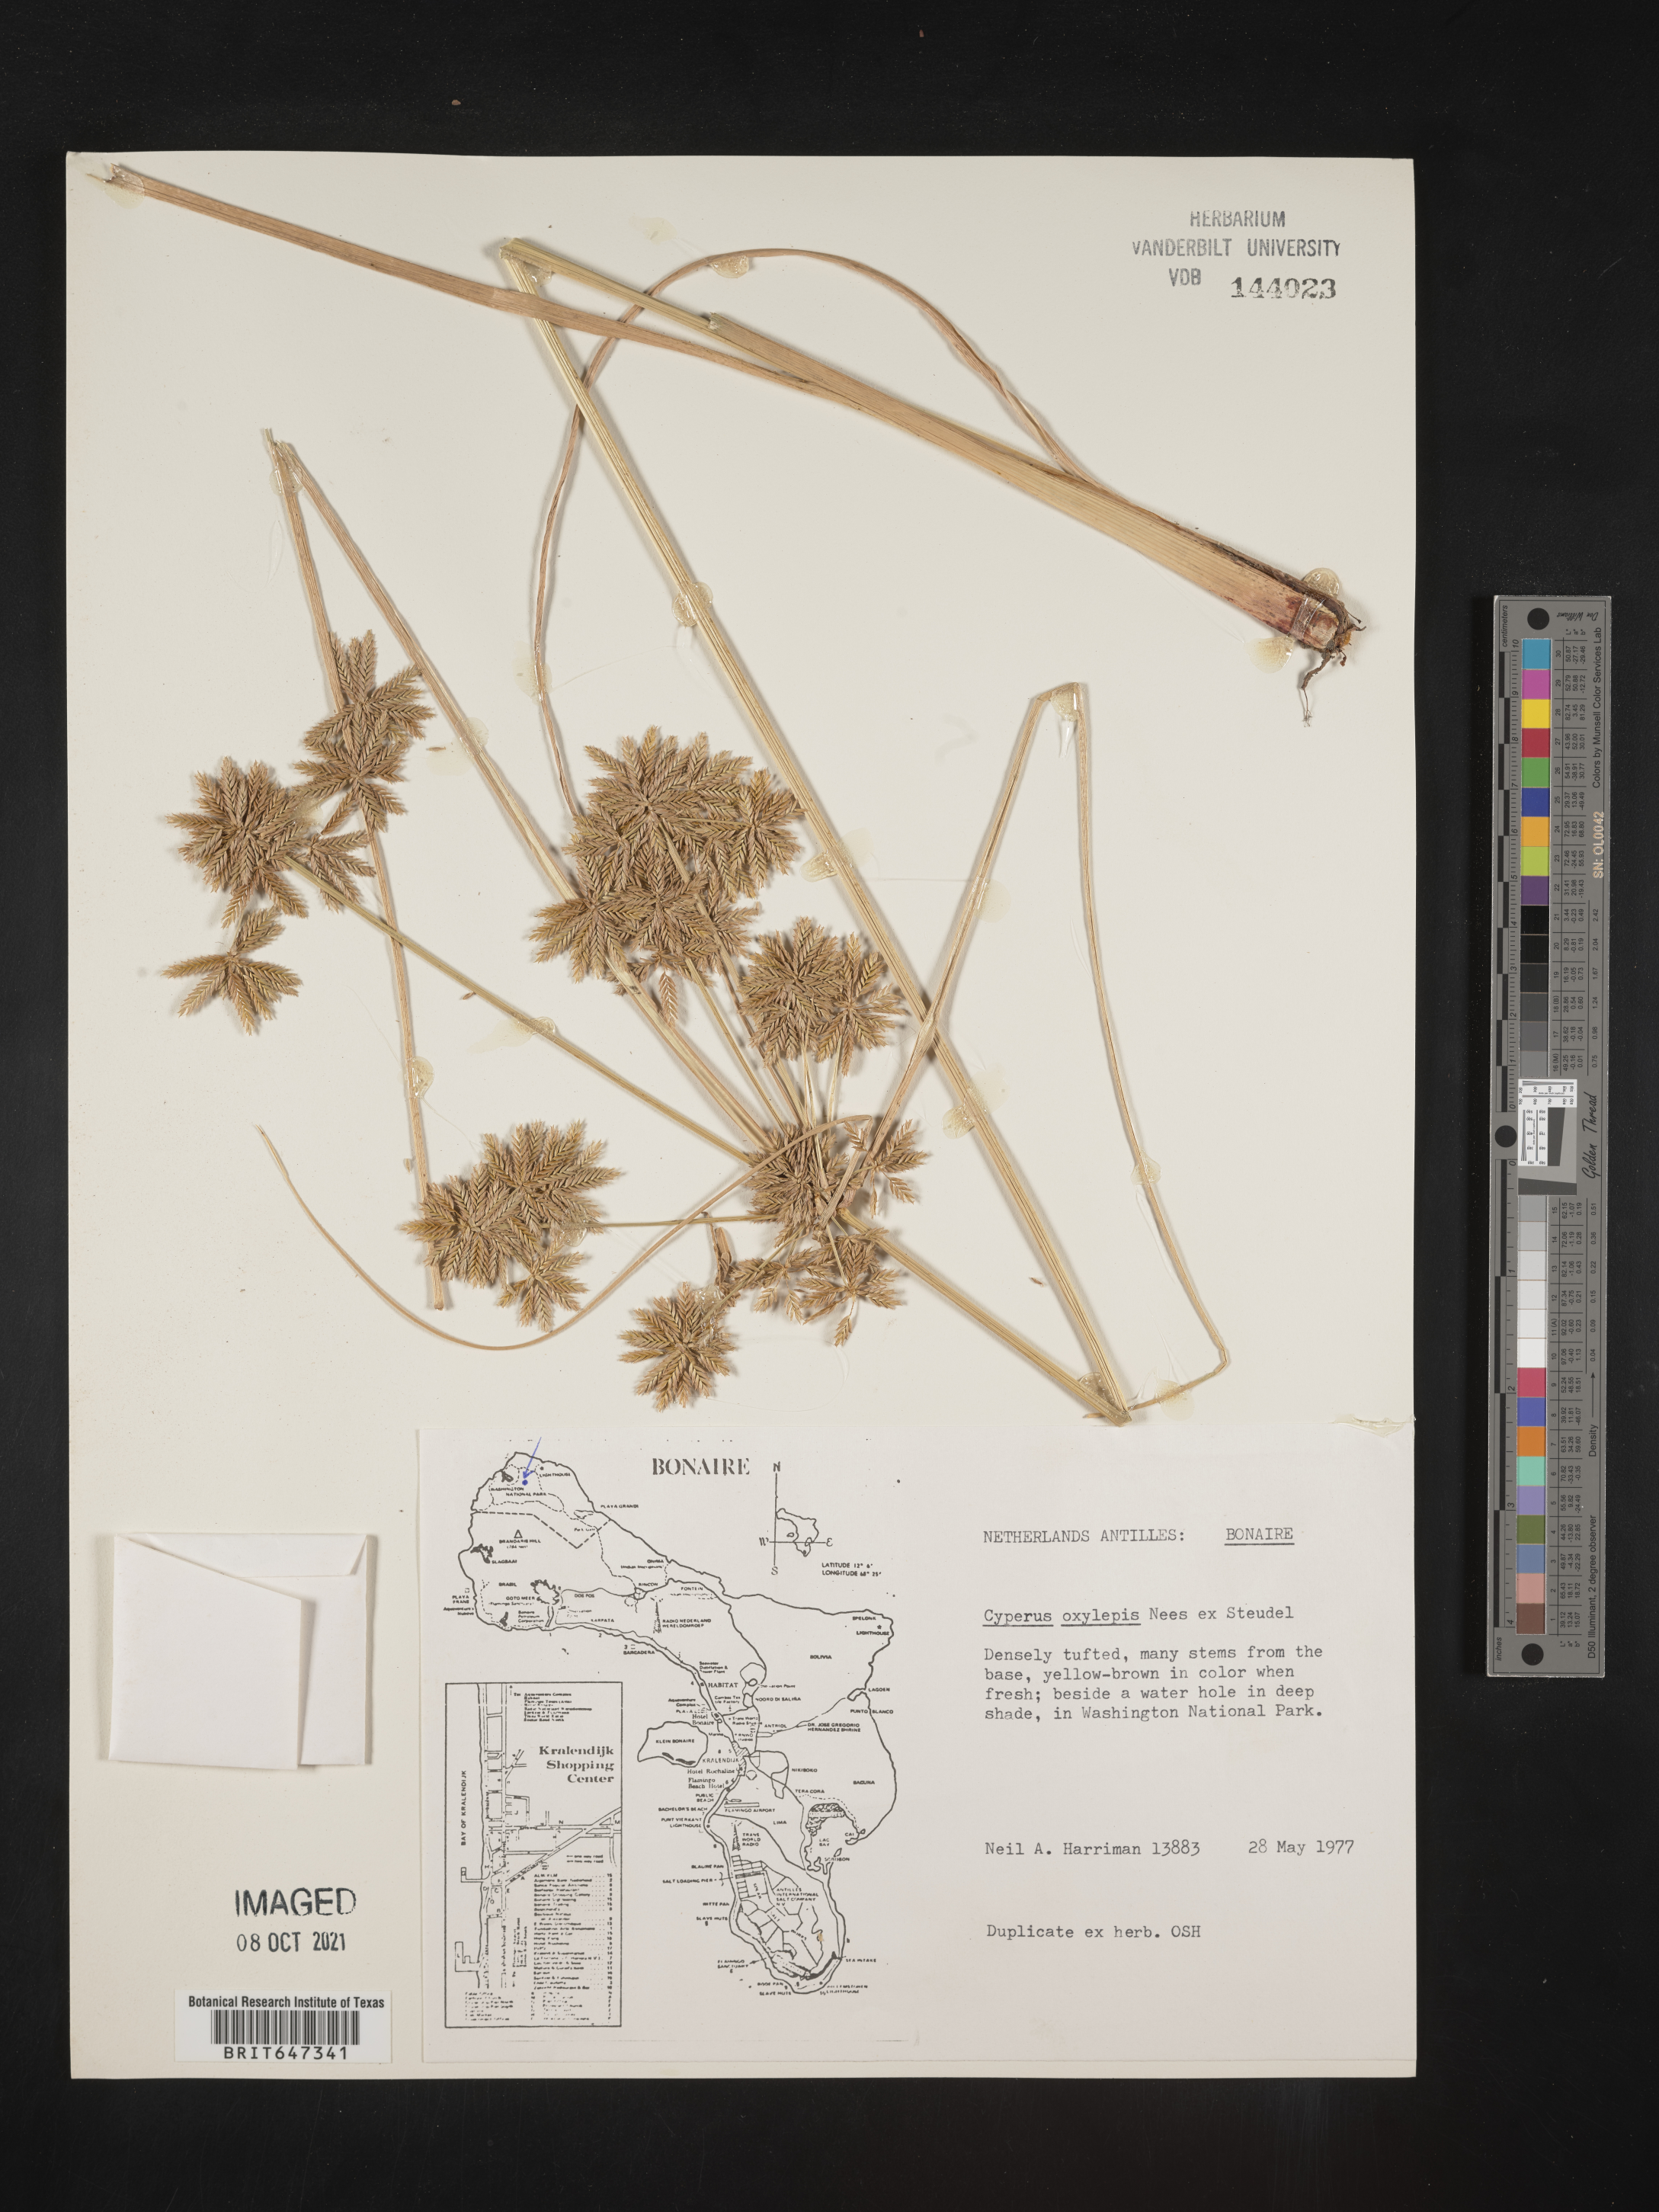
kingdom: Plantae
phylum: Tracheophyta
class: Liliopsida
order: Poales
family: Cyperaceae
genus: Cyperus
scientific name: Cyperus oxylepis
